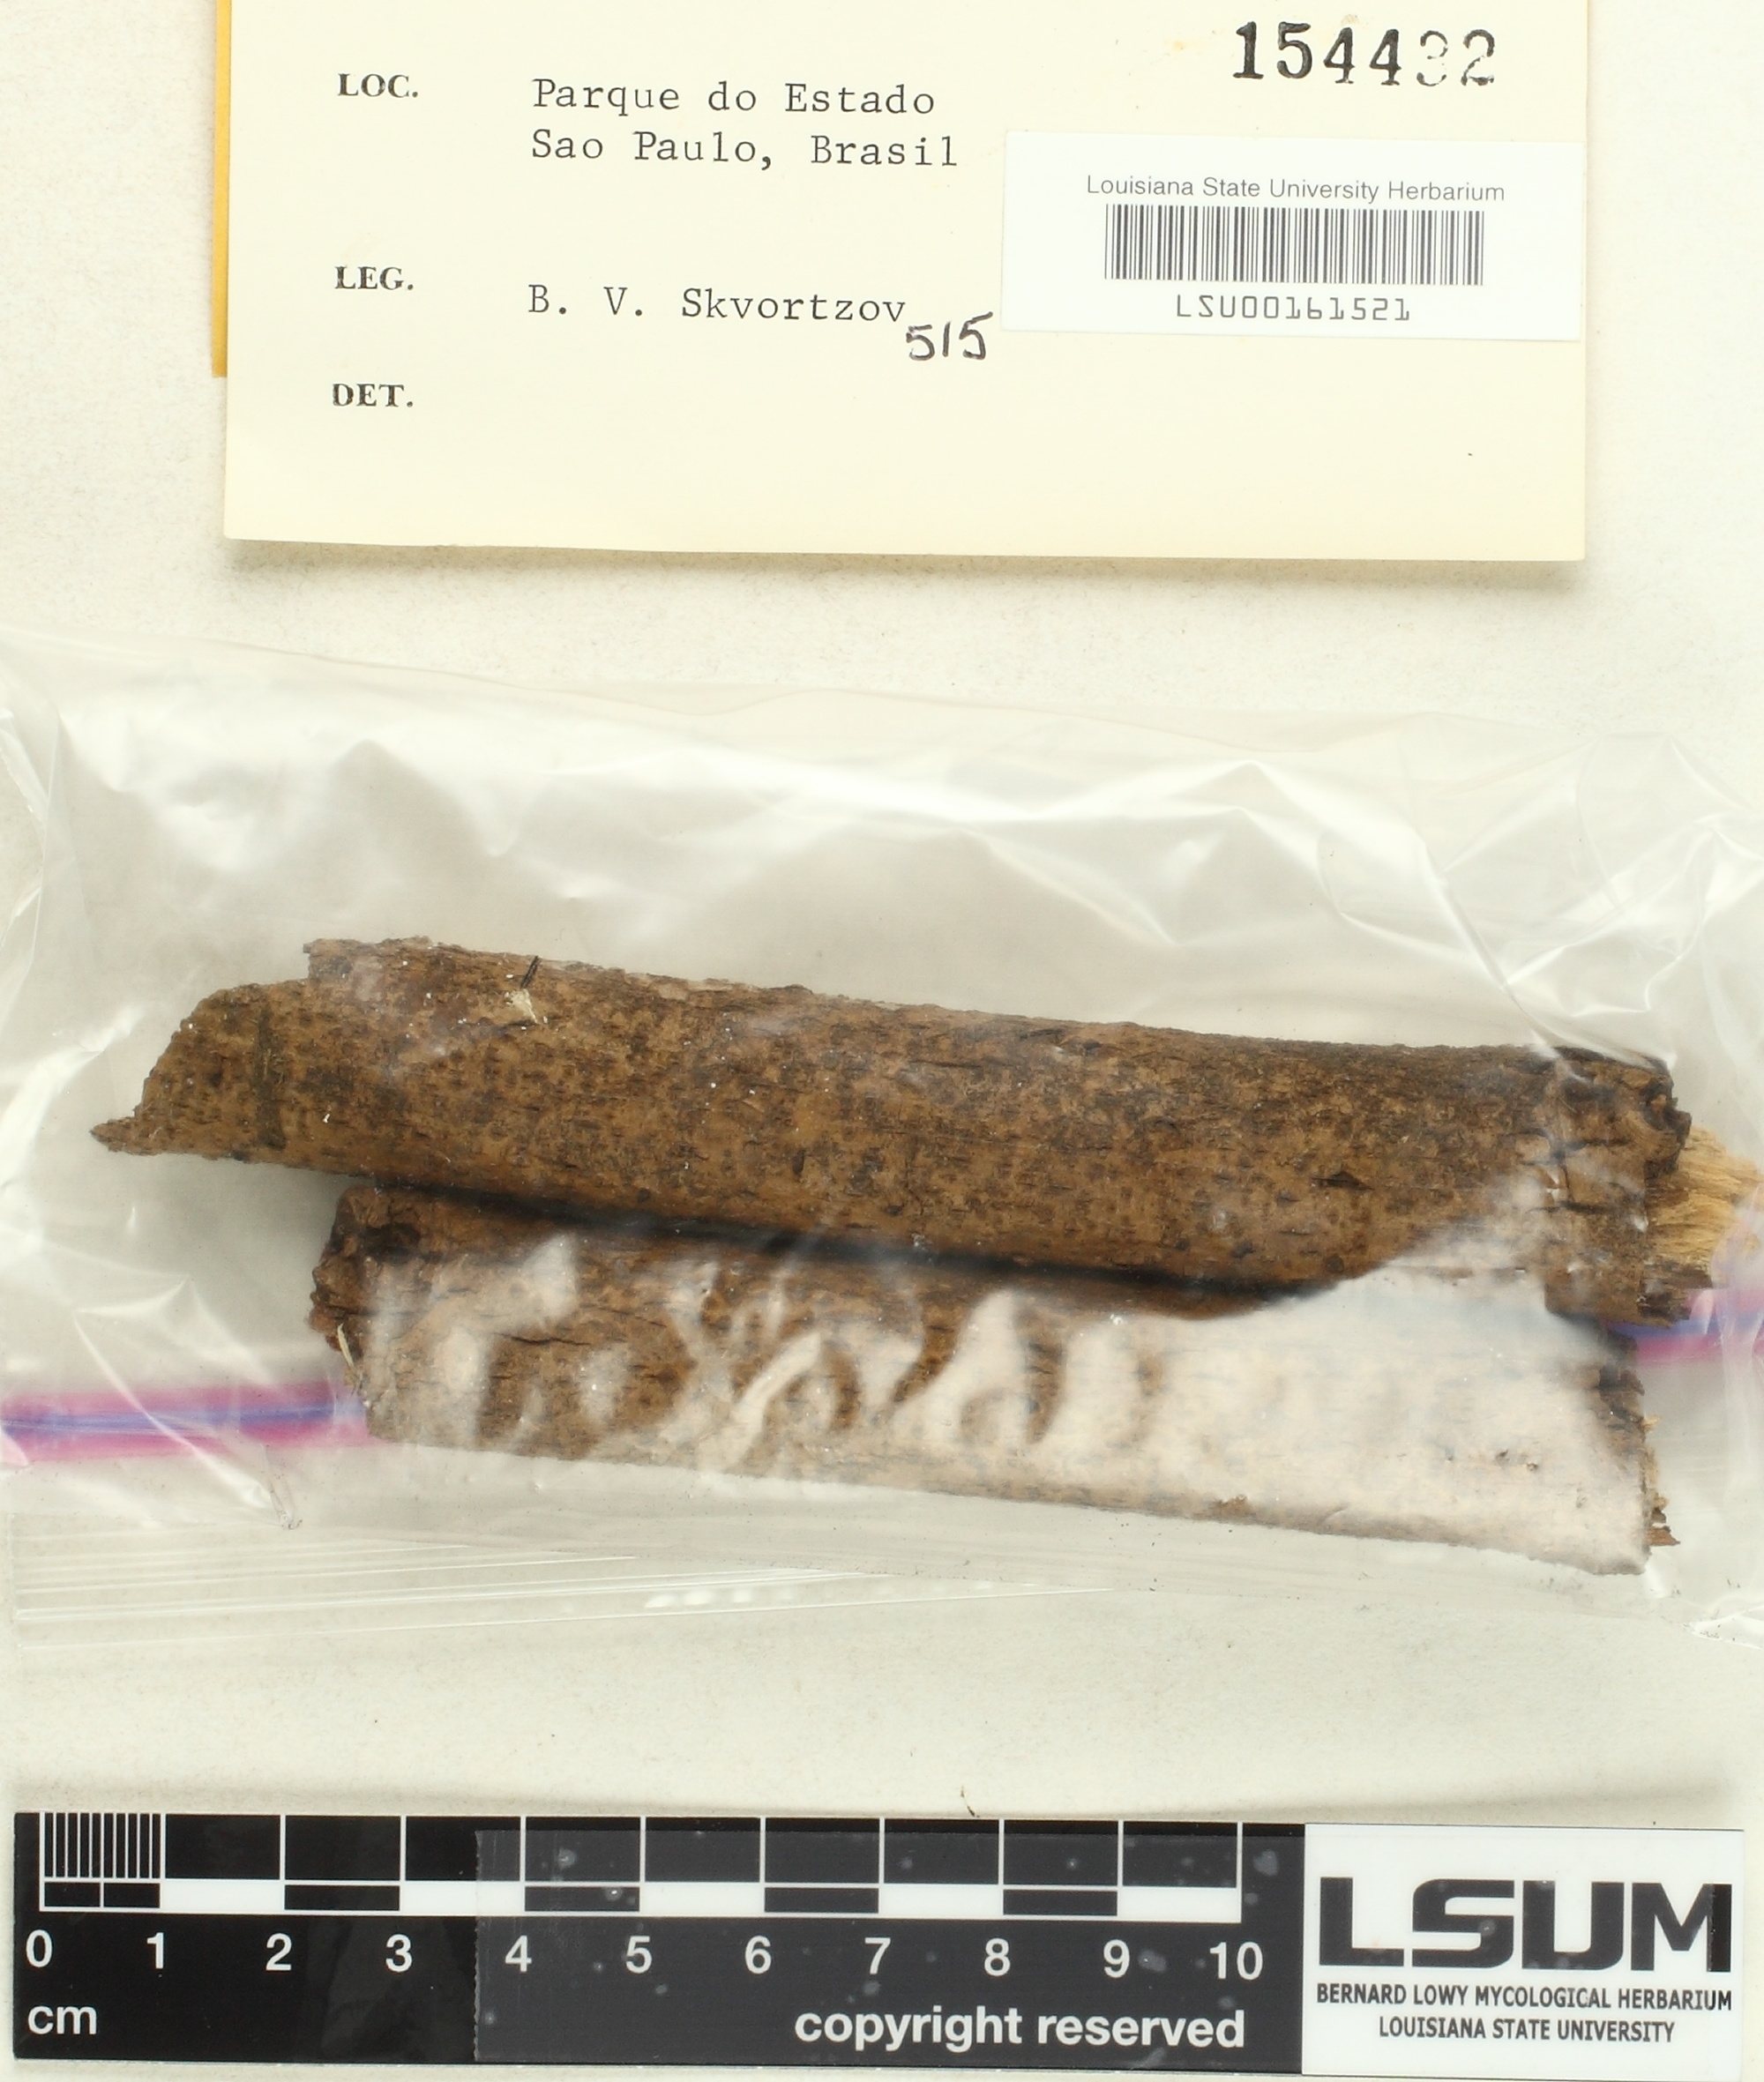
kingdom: Fungi
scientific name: Fungi
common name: Fungi
